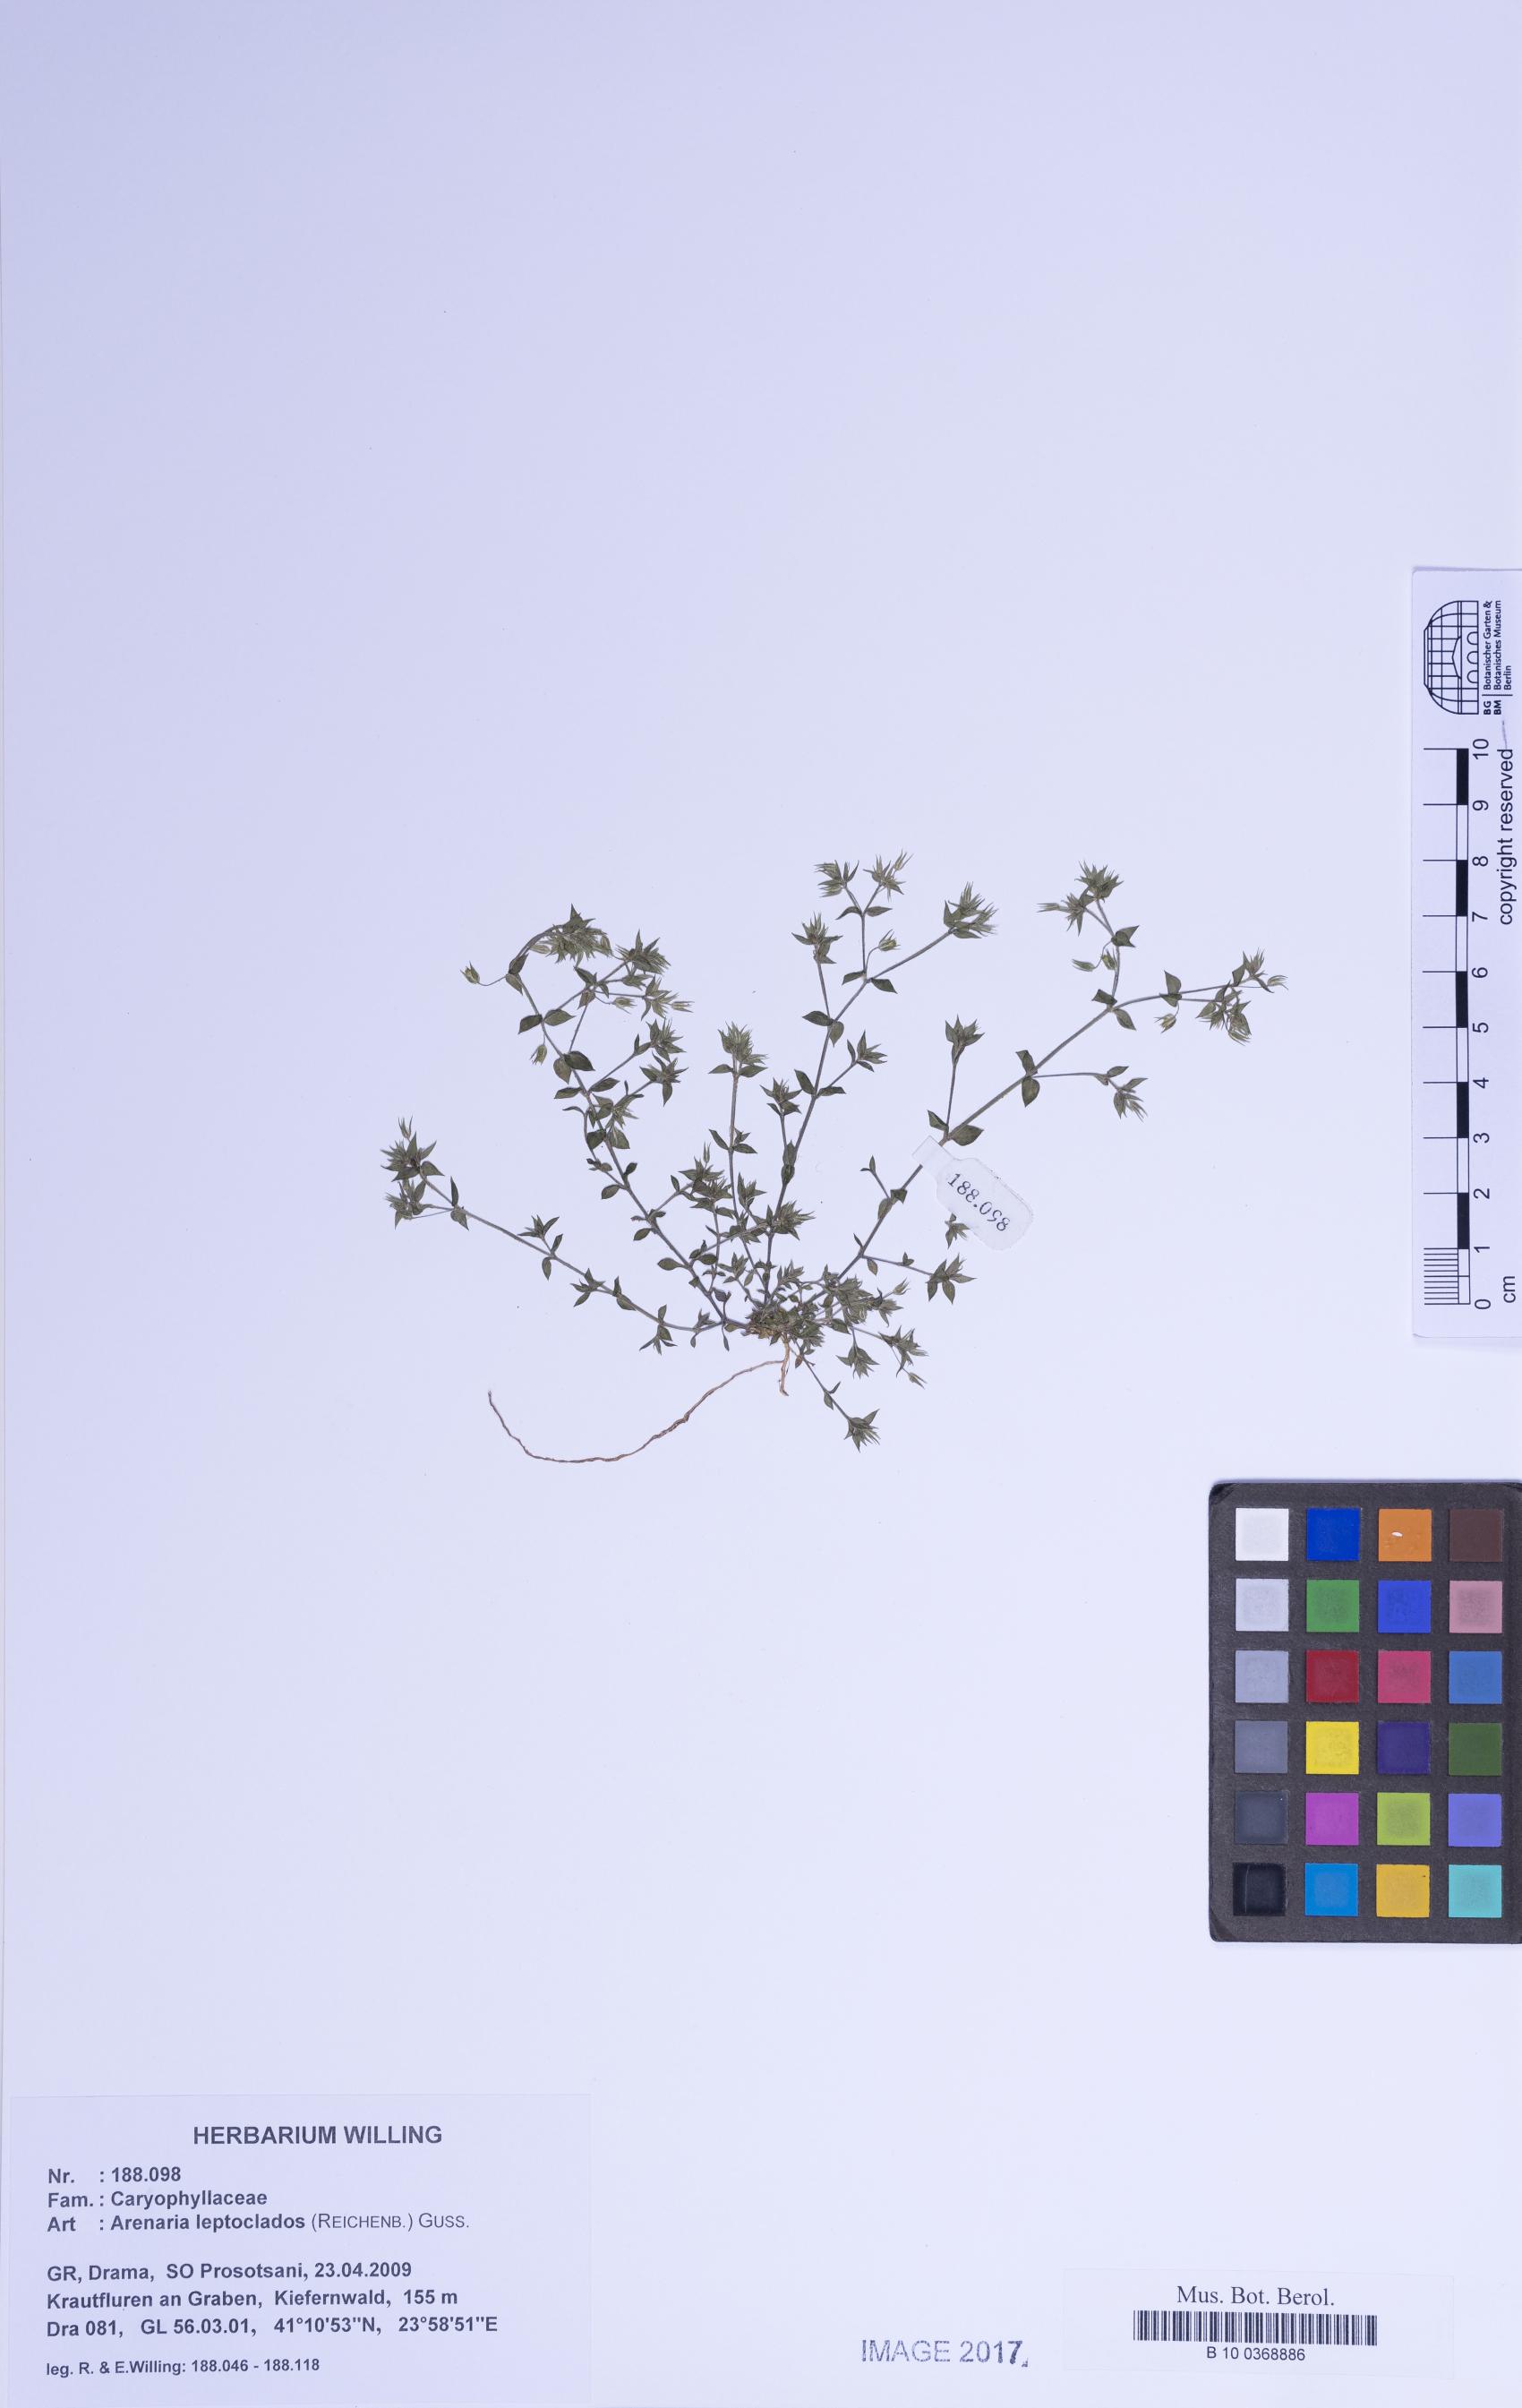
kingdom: Plantae
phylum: Tracheophyta
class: Magnoliopsida
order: Caryophyllales
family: Caryophyllaceae
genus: Arenaria
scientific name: Arenaria leptoclados
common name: Thyme-leaved sandwort
